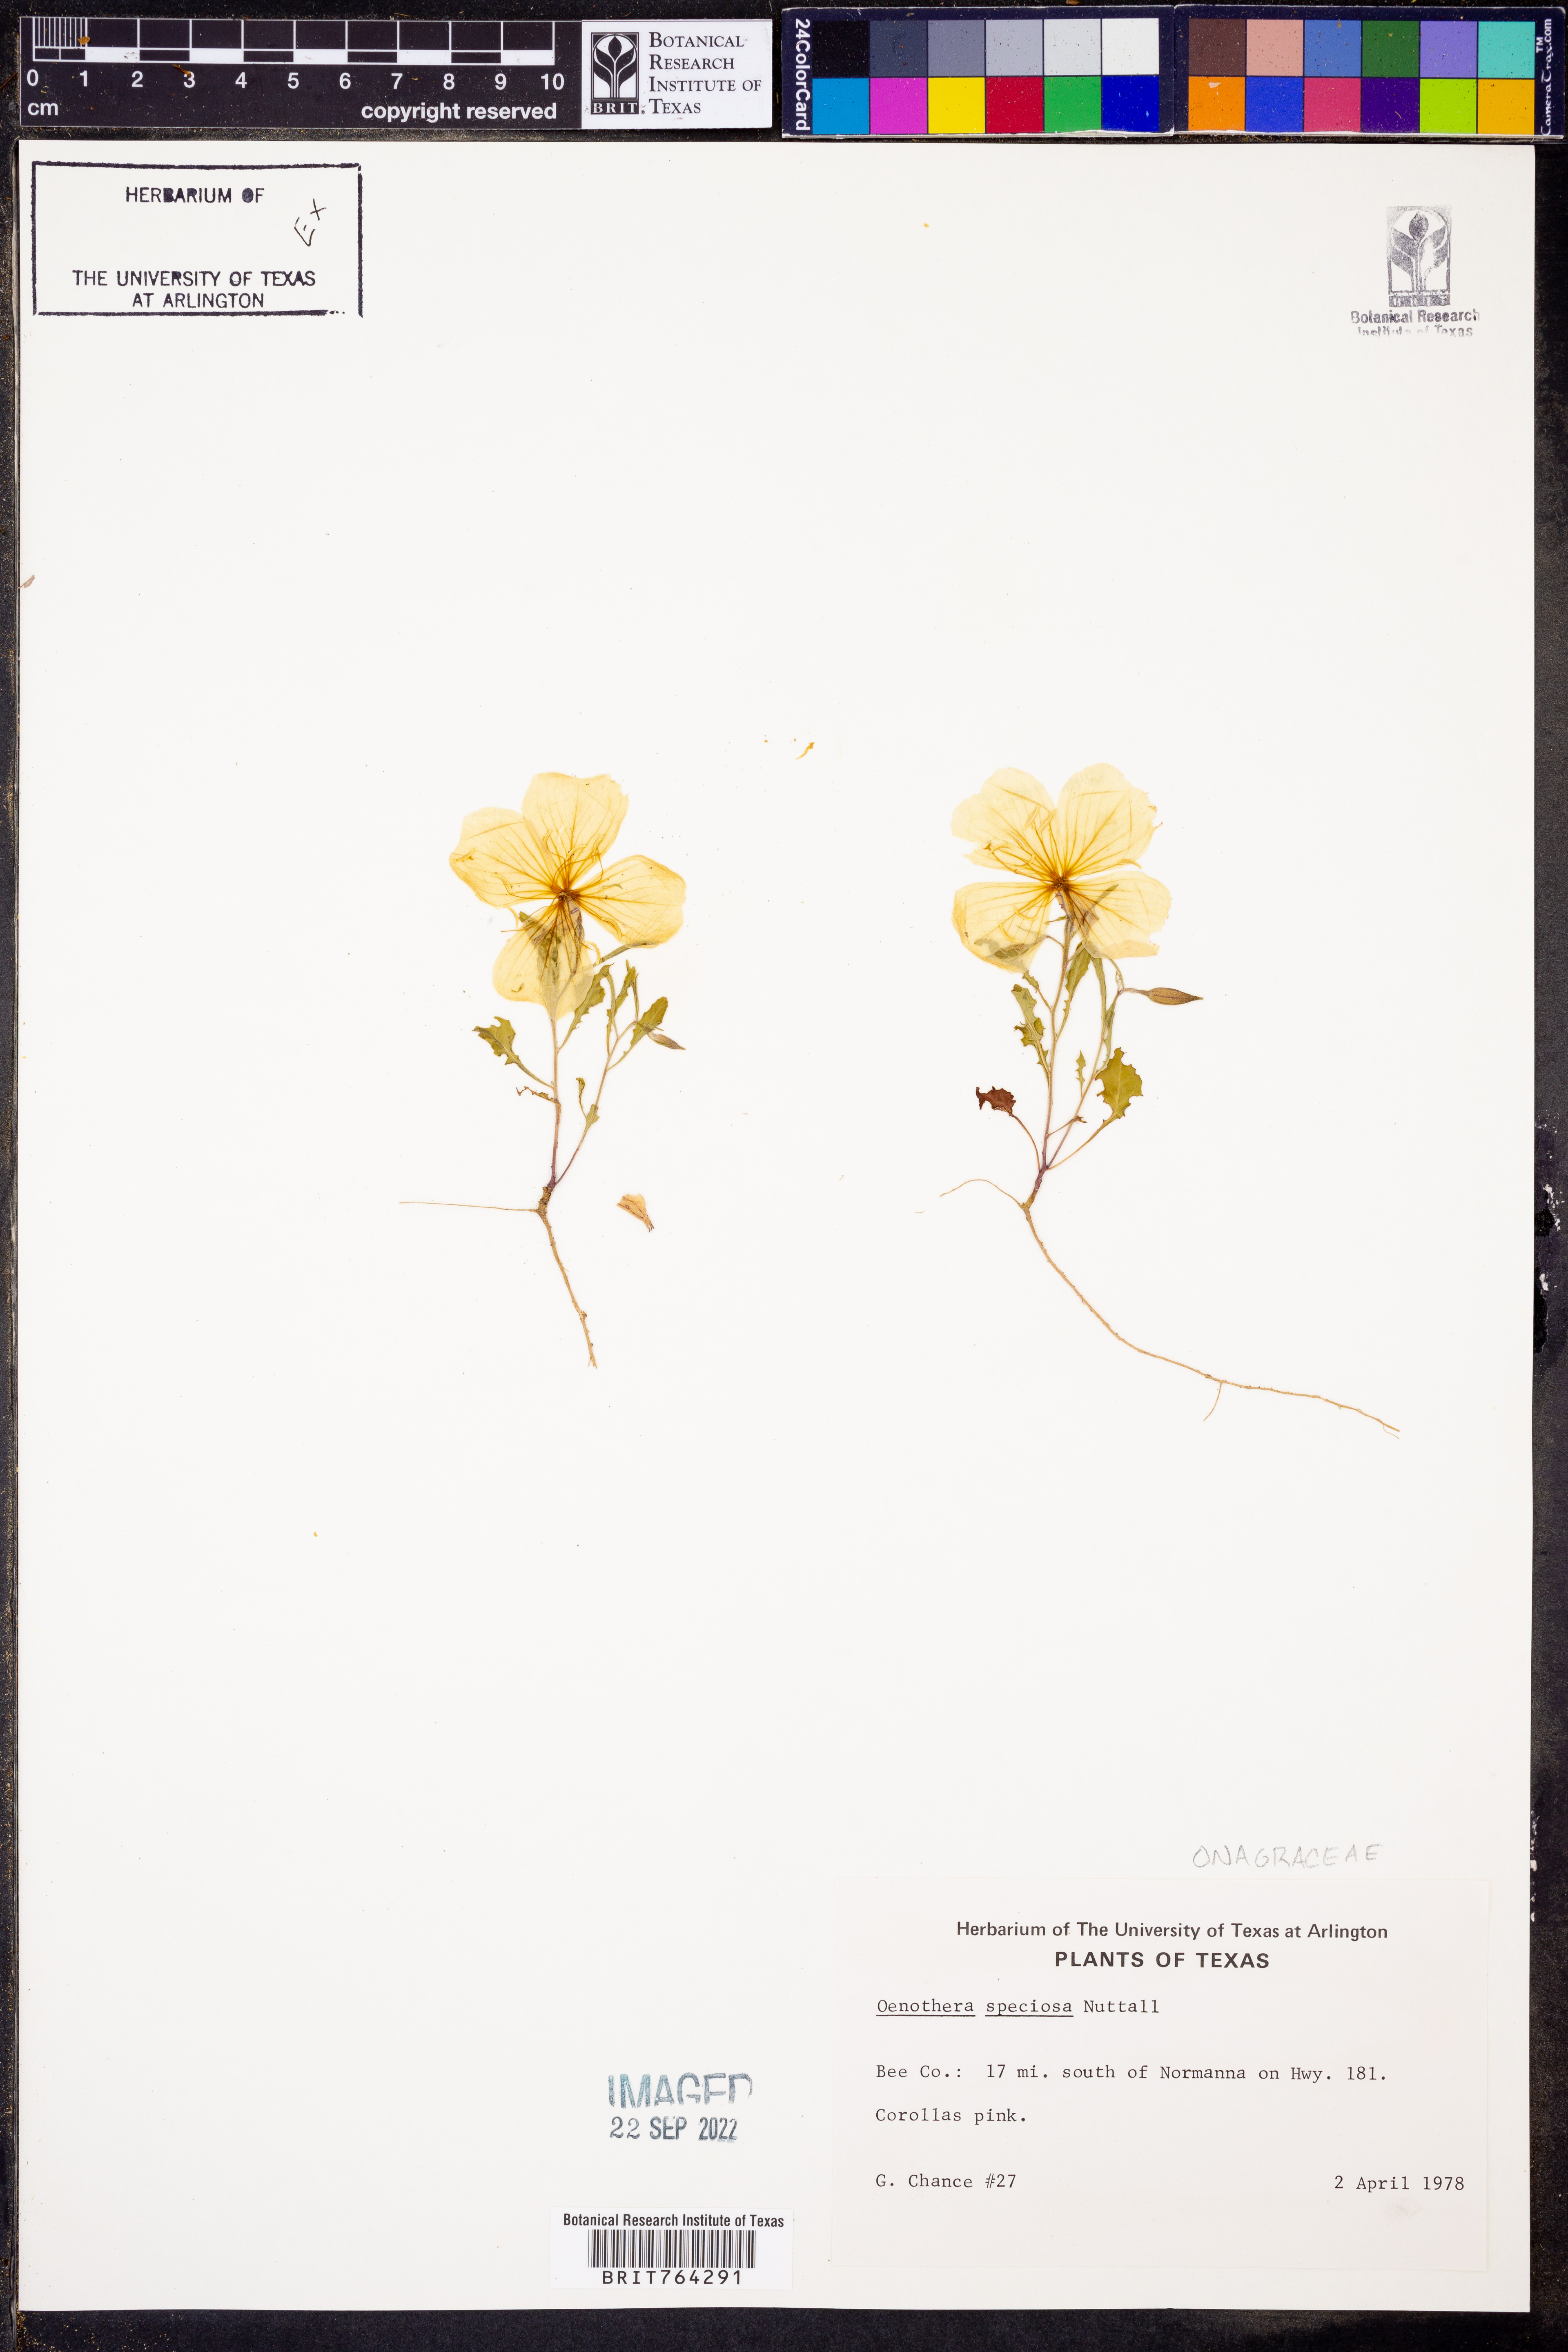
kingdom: Plantae
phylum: Tracheophyta
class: Magnoliopsida
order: Myrtales
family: Onagraceae
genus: Oenothera
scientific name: Oenothera speciosa
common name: White evening-primrose
